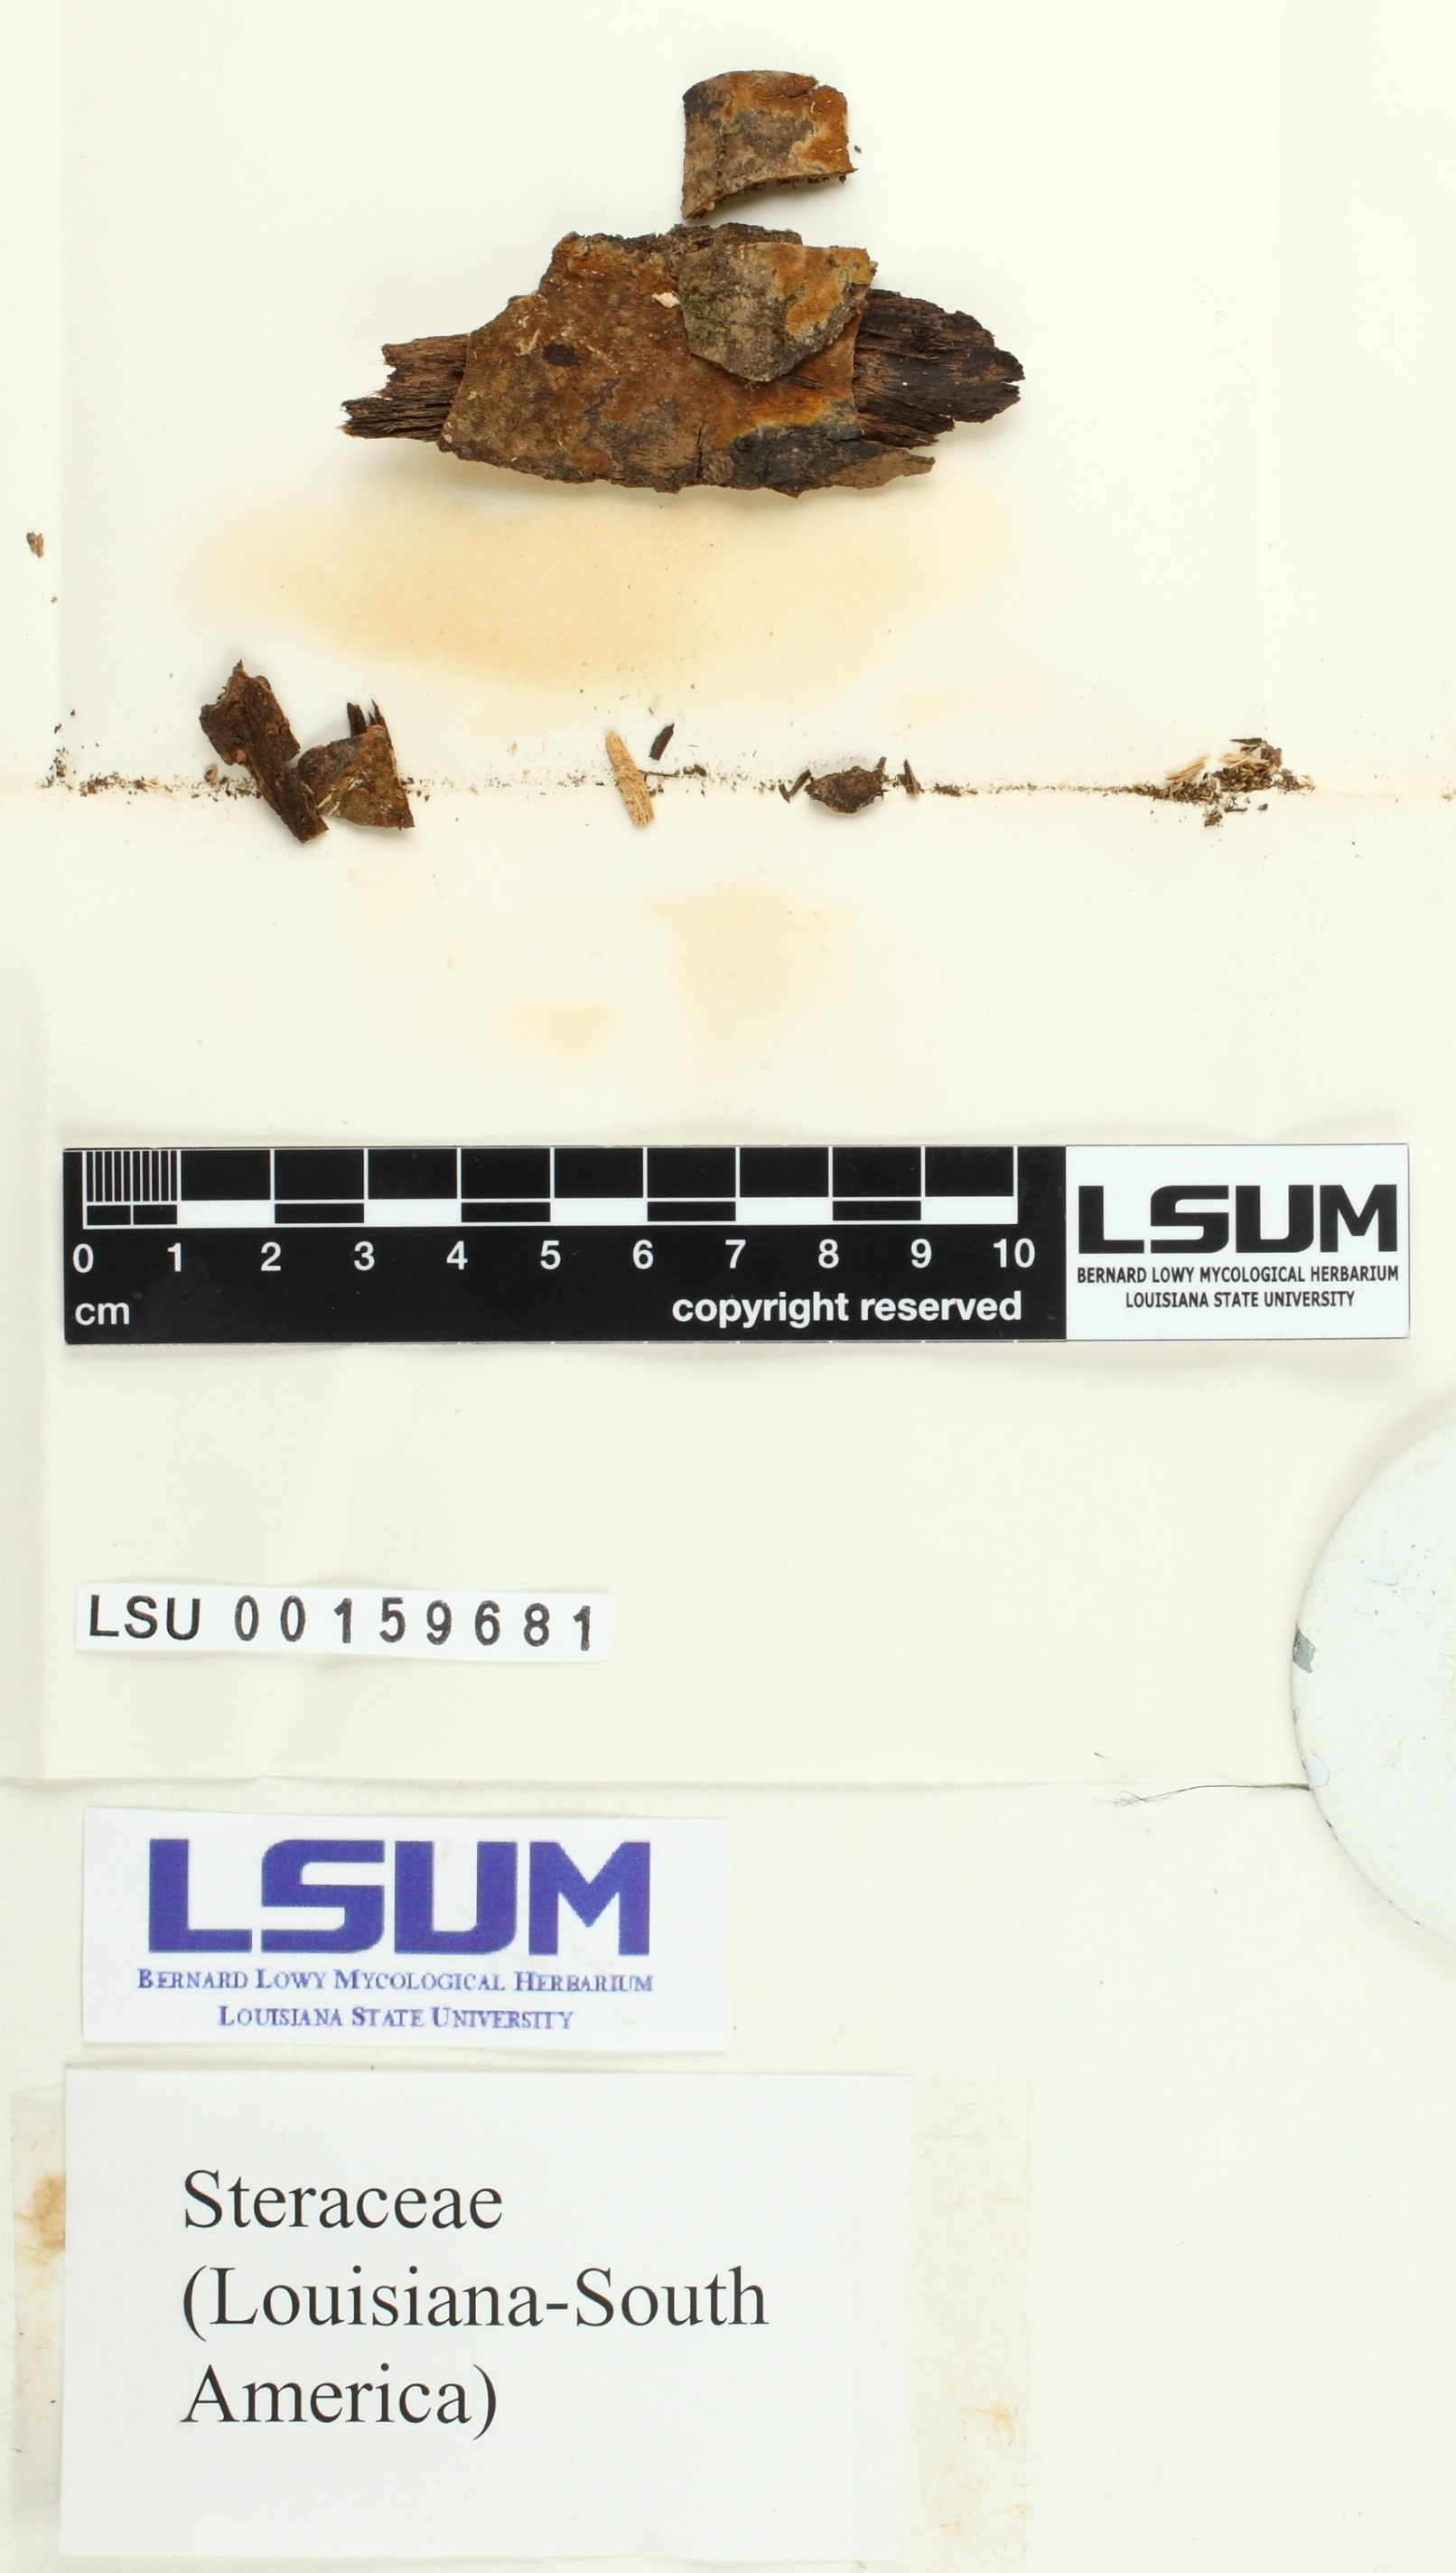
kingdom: Fungi
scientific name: Fungi
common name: Fungi
